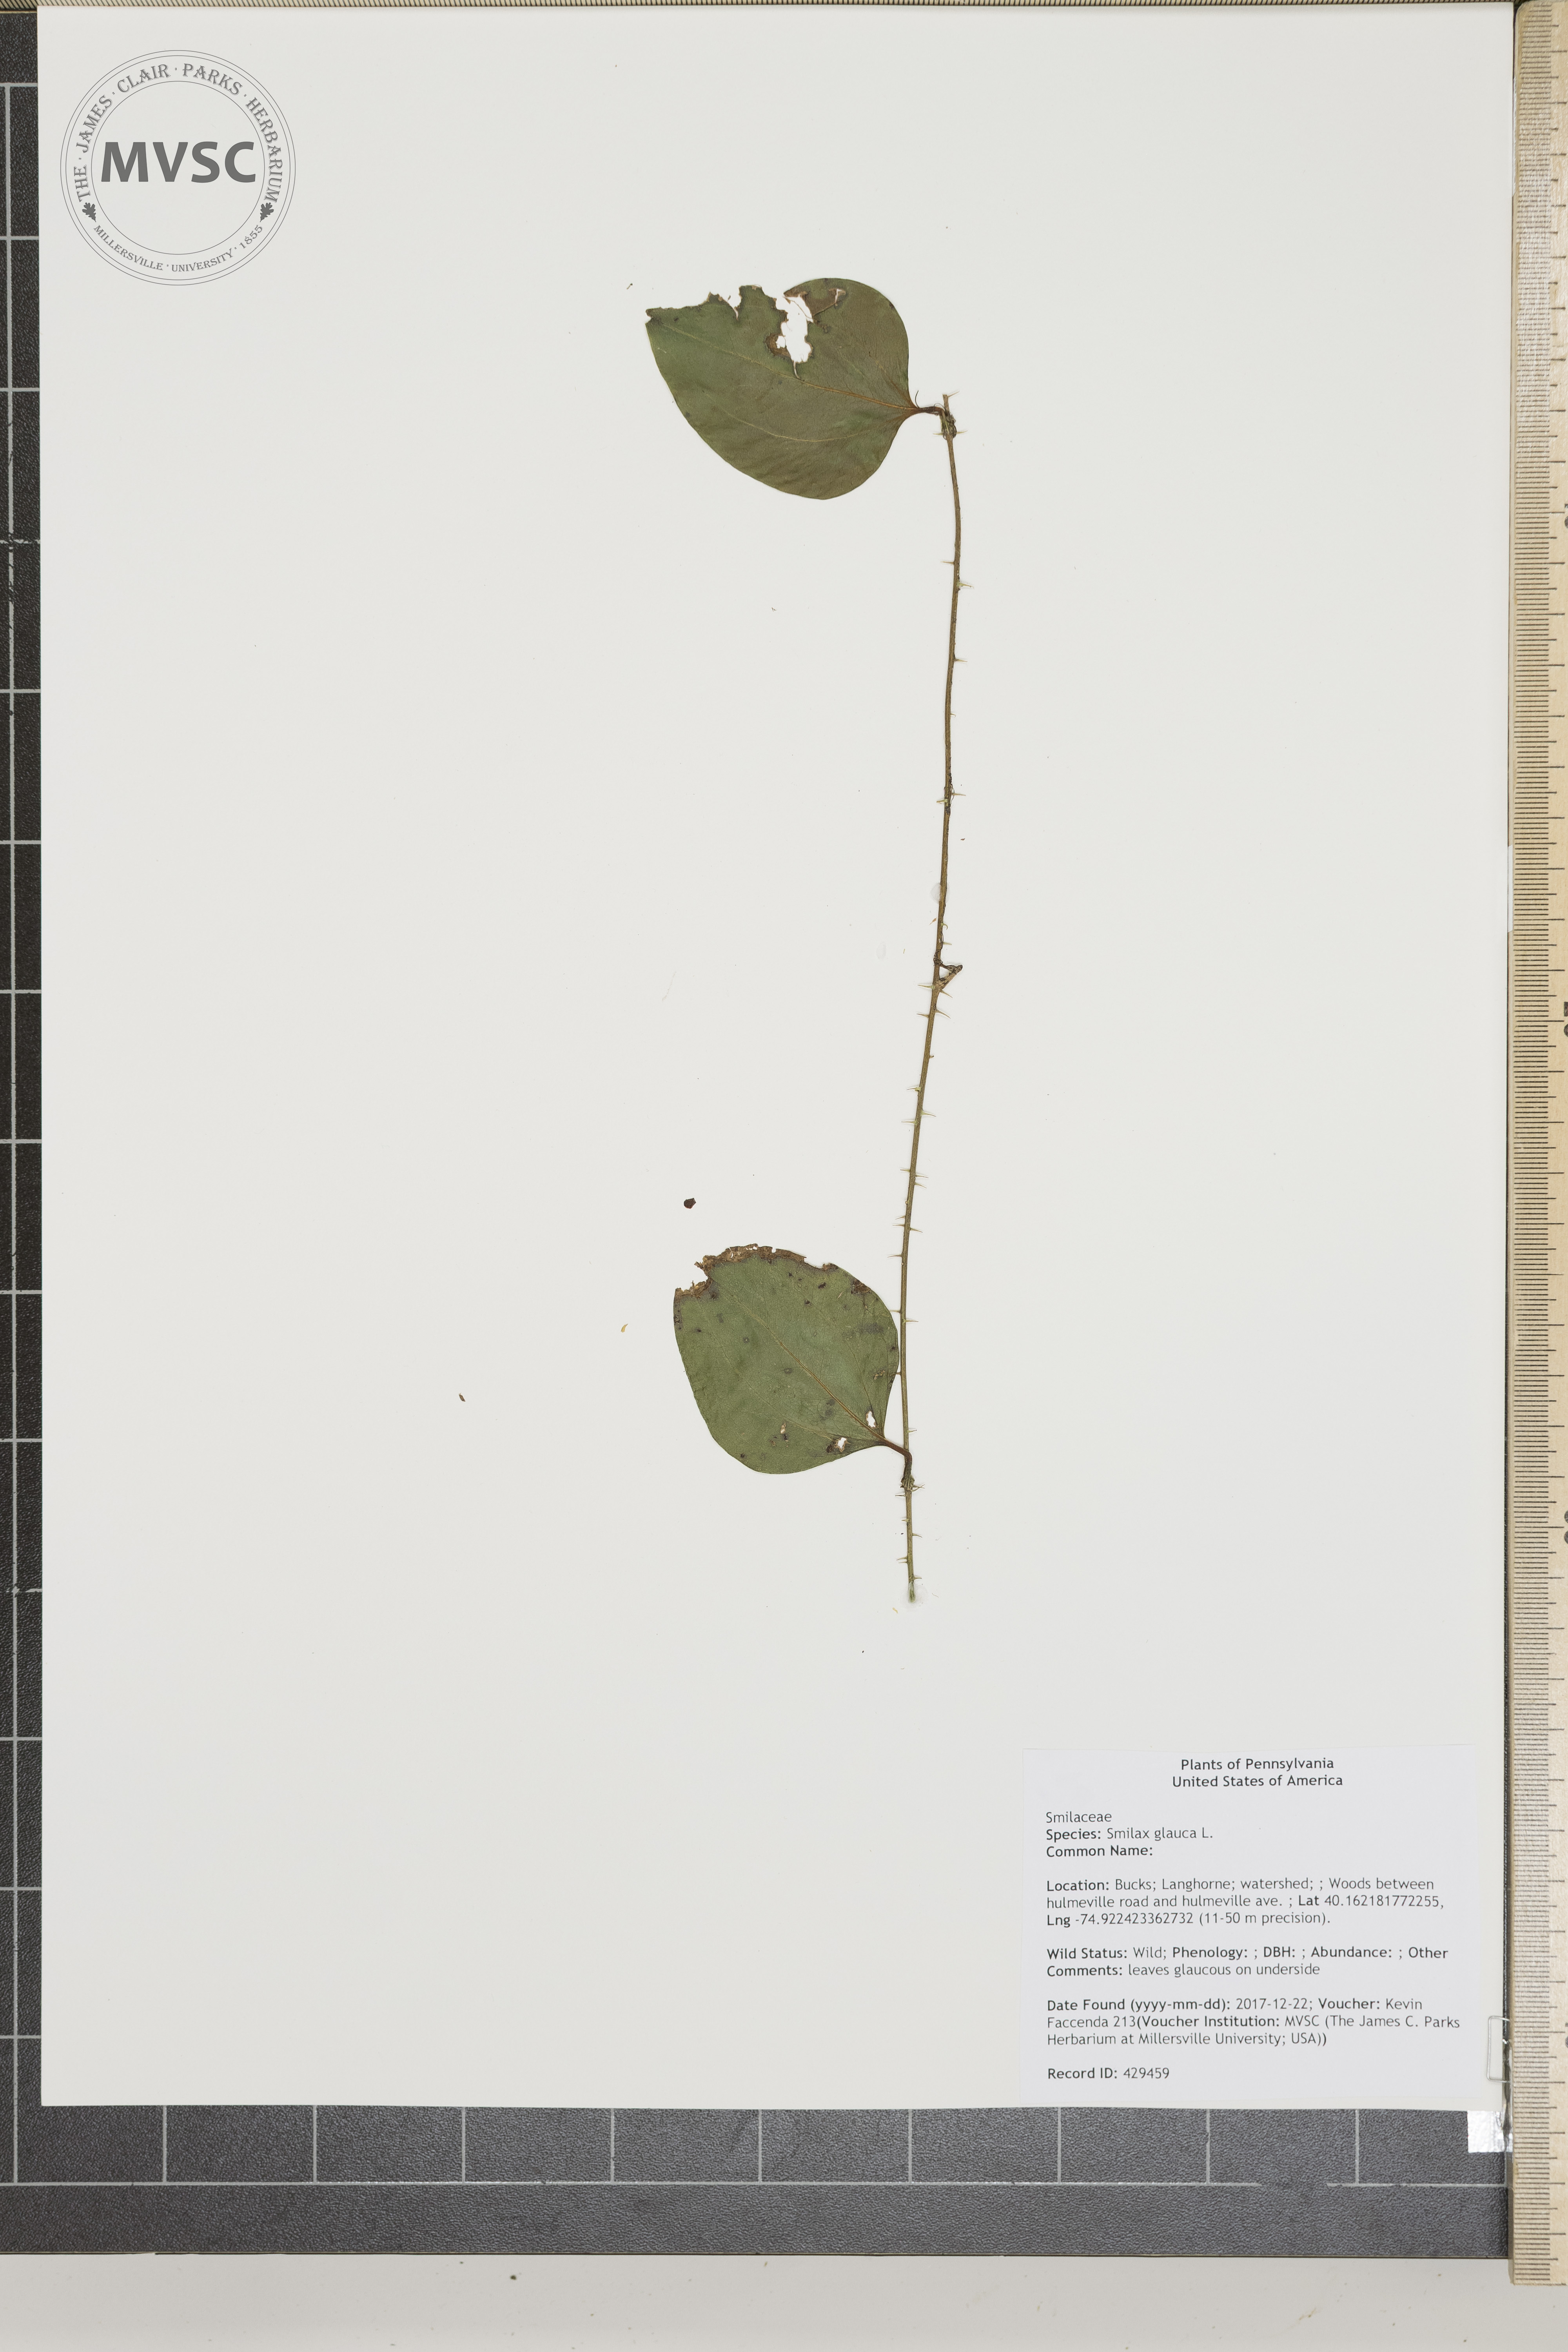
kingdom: Plantae
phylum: Tracheophyta
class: Liliopsida
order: Liliales
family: Smilacaceae
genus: Smilax
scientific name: Smilax glauca
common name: Cat greenbrier
